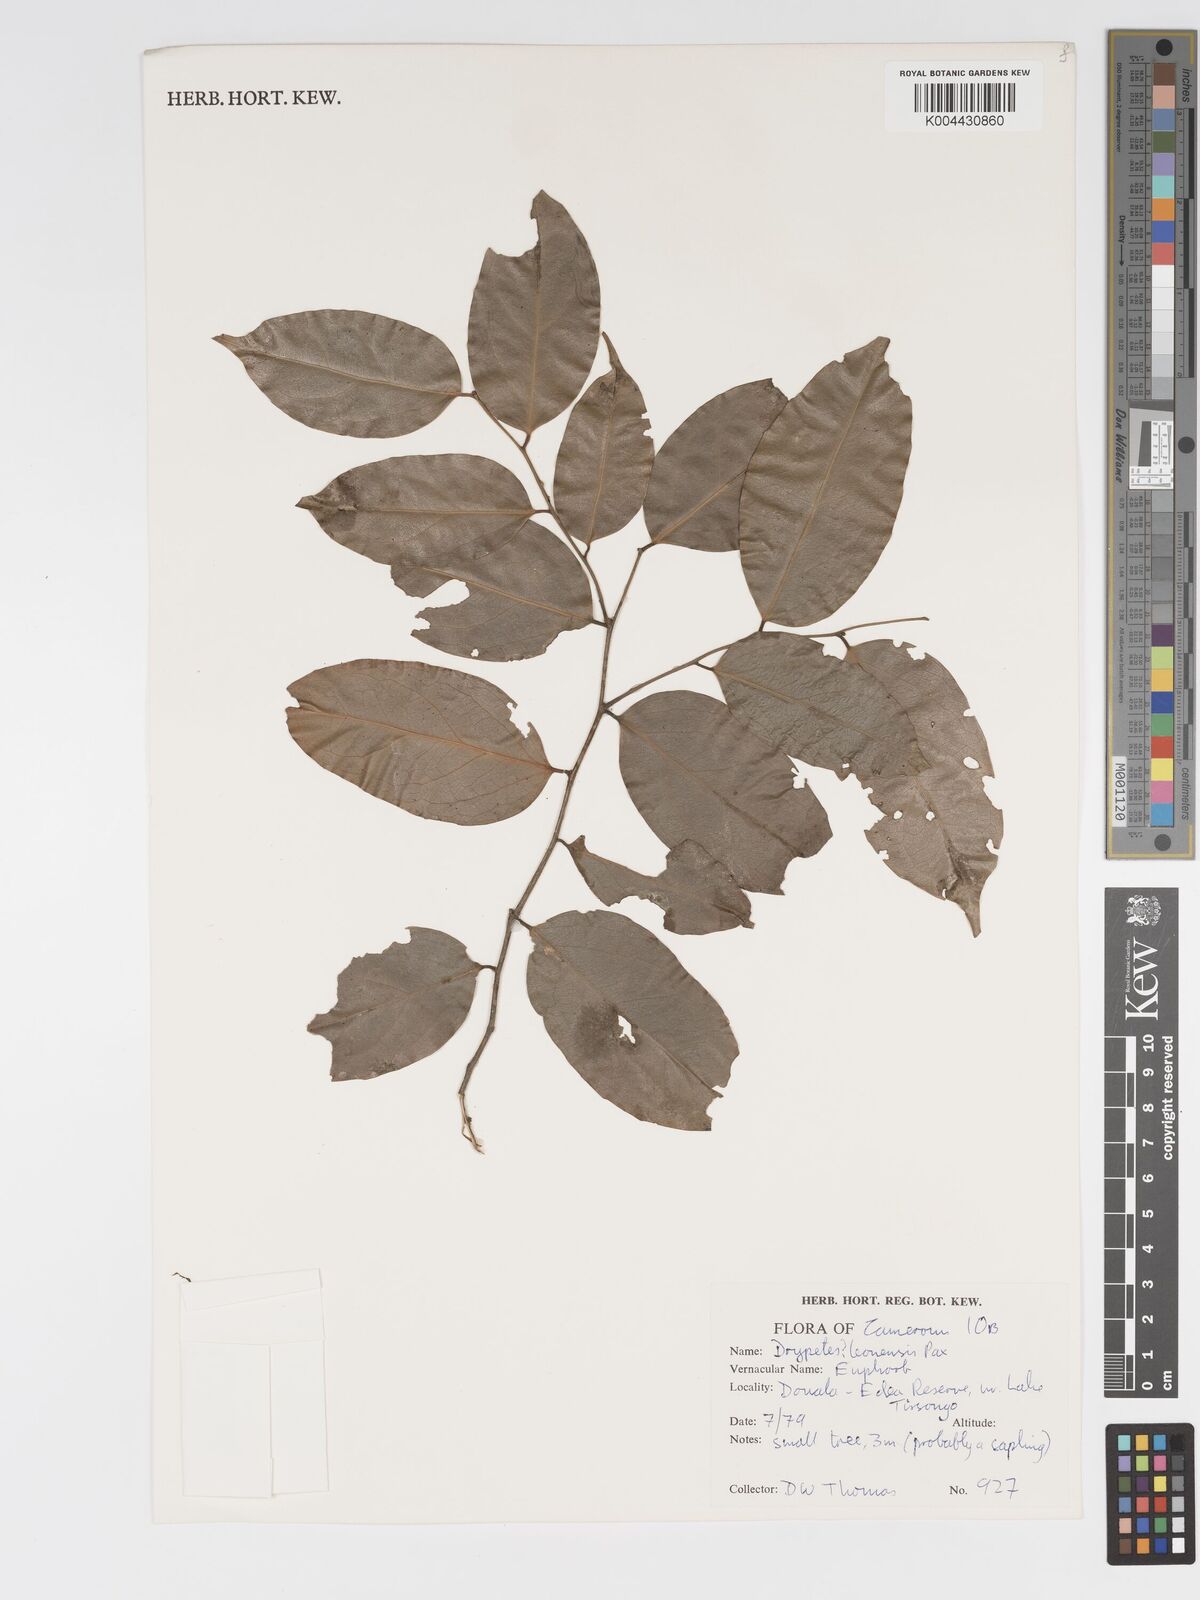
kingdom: Plantae
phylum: Tracheophyta
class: Magnoliopsida
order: Malpighiales
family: Putranjivaceae
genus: Drypetes
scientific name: Drypetes
